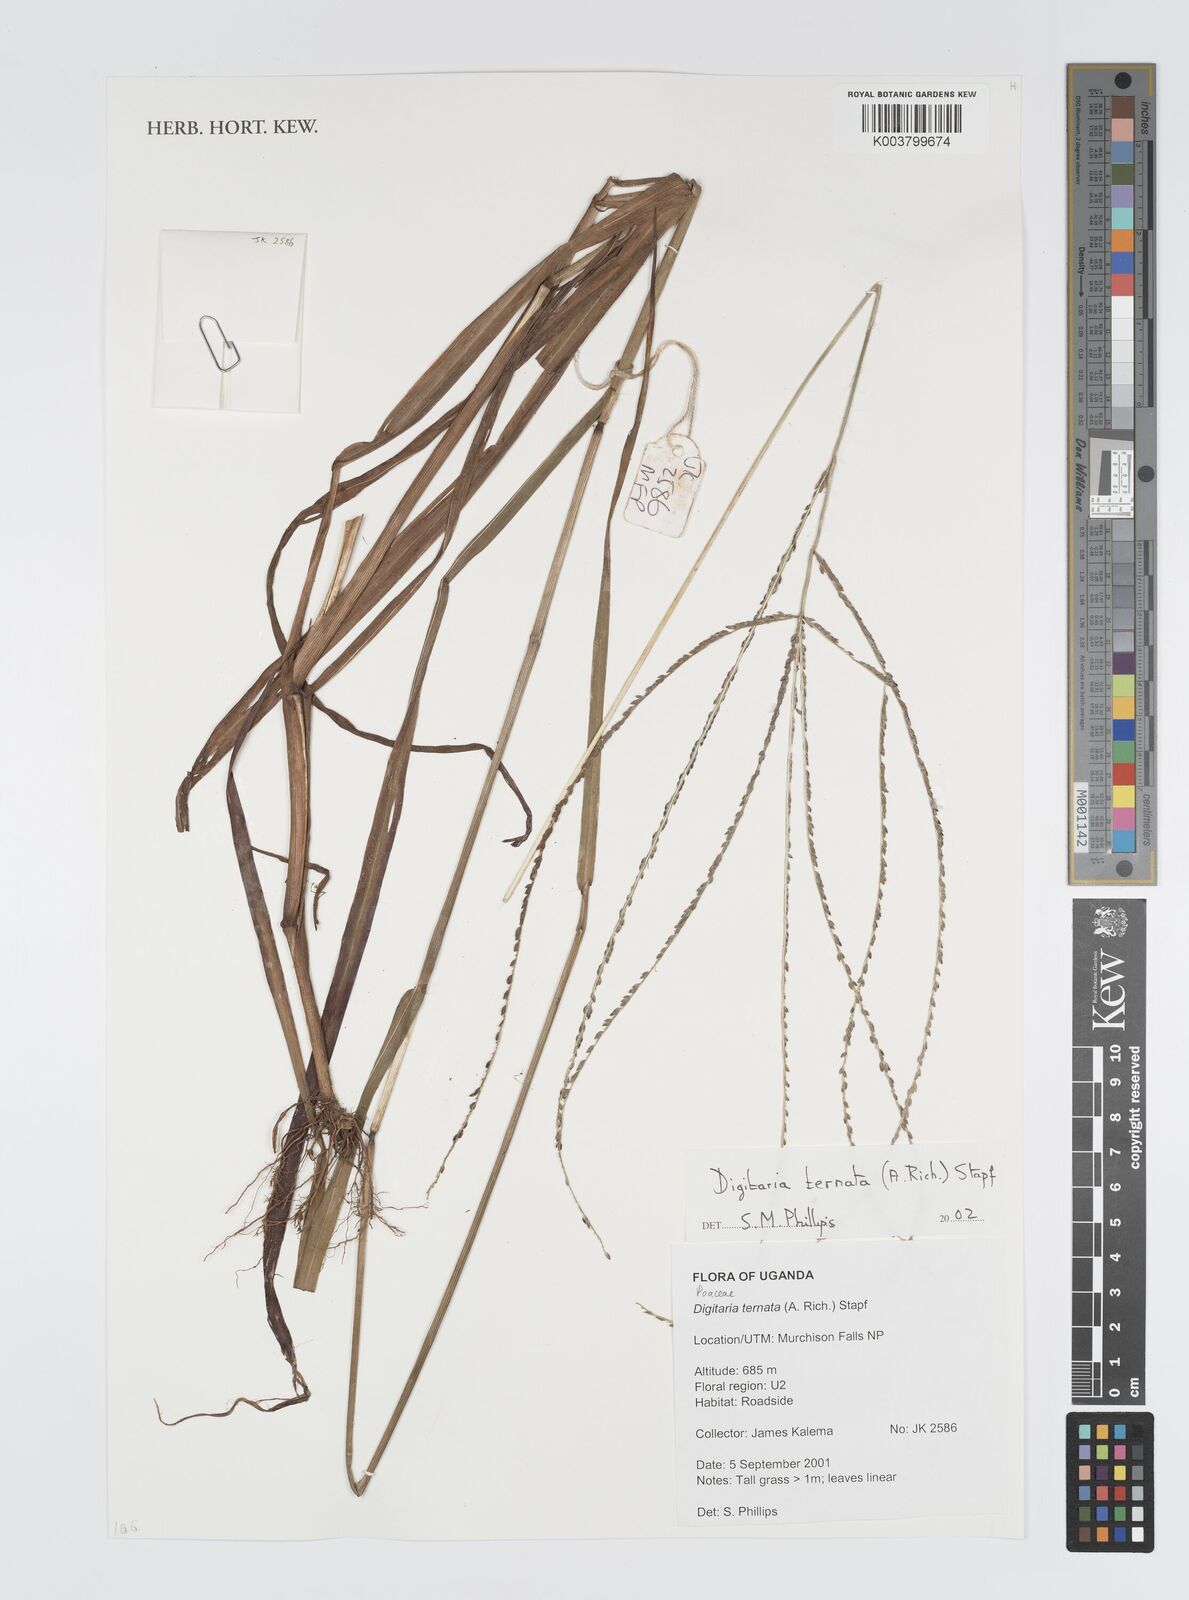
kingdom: Plantae
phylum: Tracheophyta
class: Liliopsida
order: Poales
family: Poaceae
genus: Digitaria
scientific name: Digitaria ternata
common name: Blackseed crabgrass
